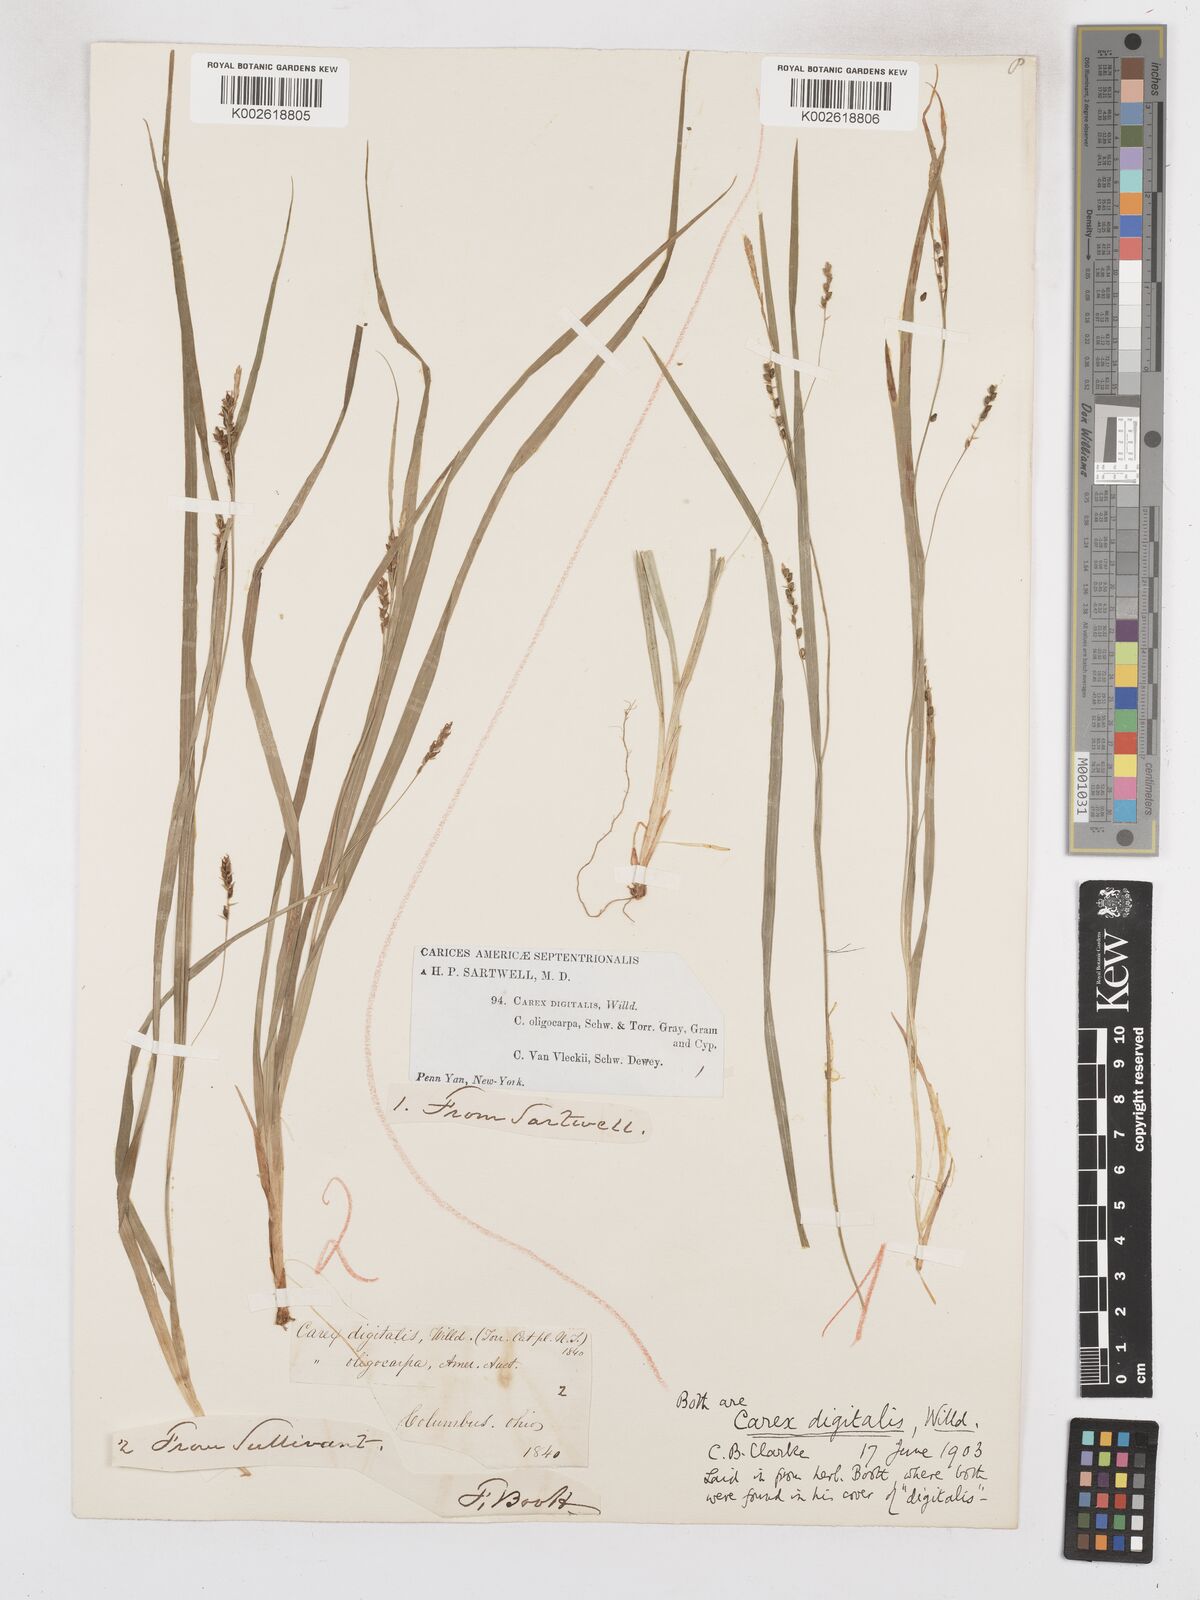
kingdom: Plantae
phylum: Tracheophyta
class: Liliopsida
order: Poales
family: Cyperaceae
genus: Carex
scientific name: Carex digitalis
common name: Slender wood sedge
